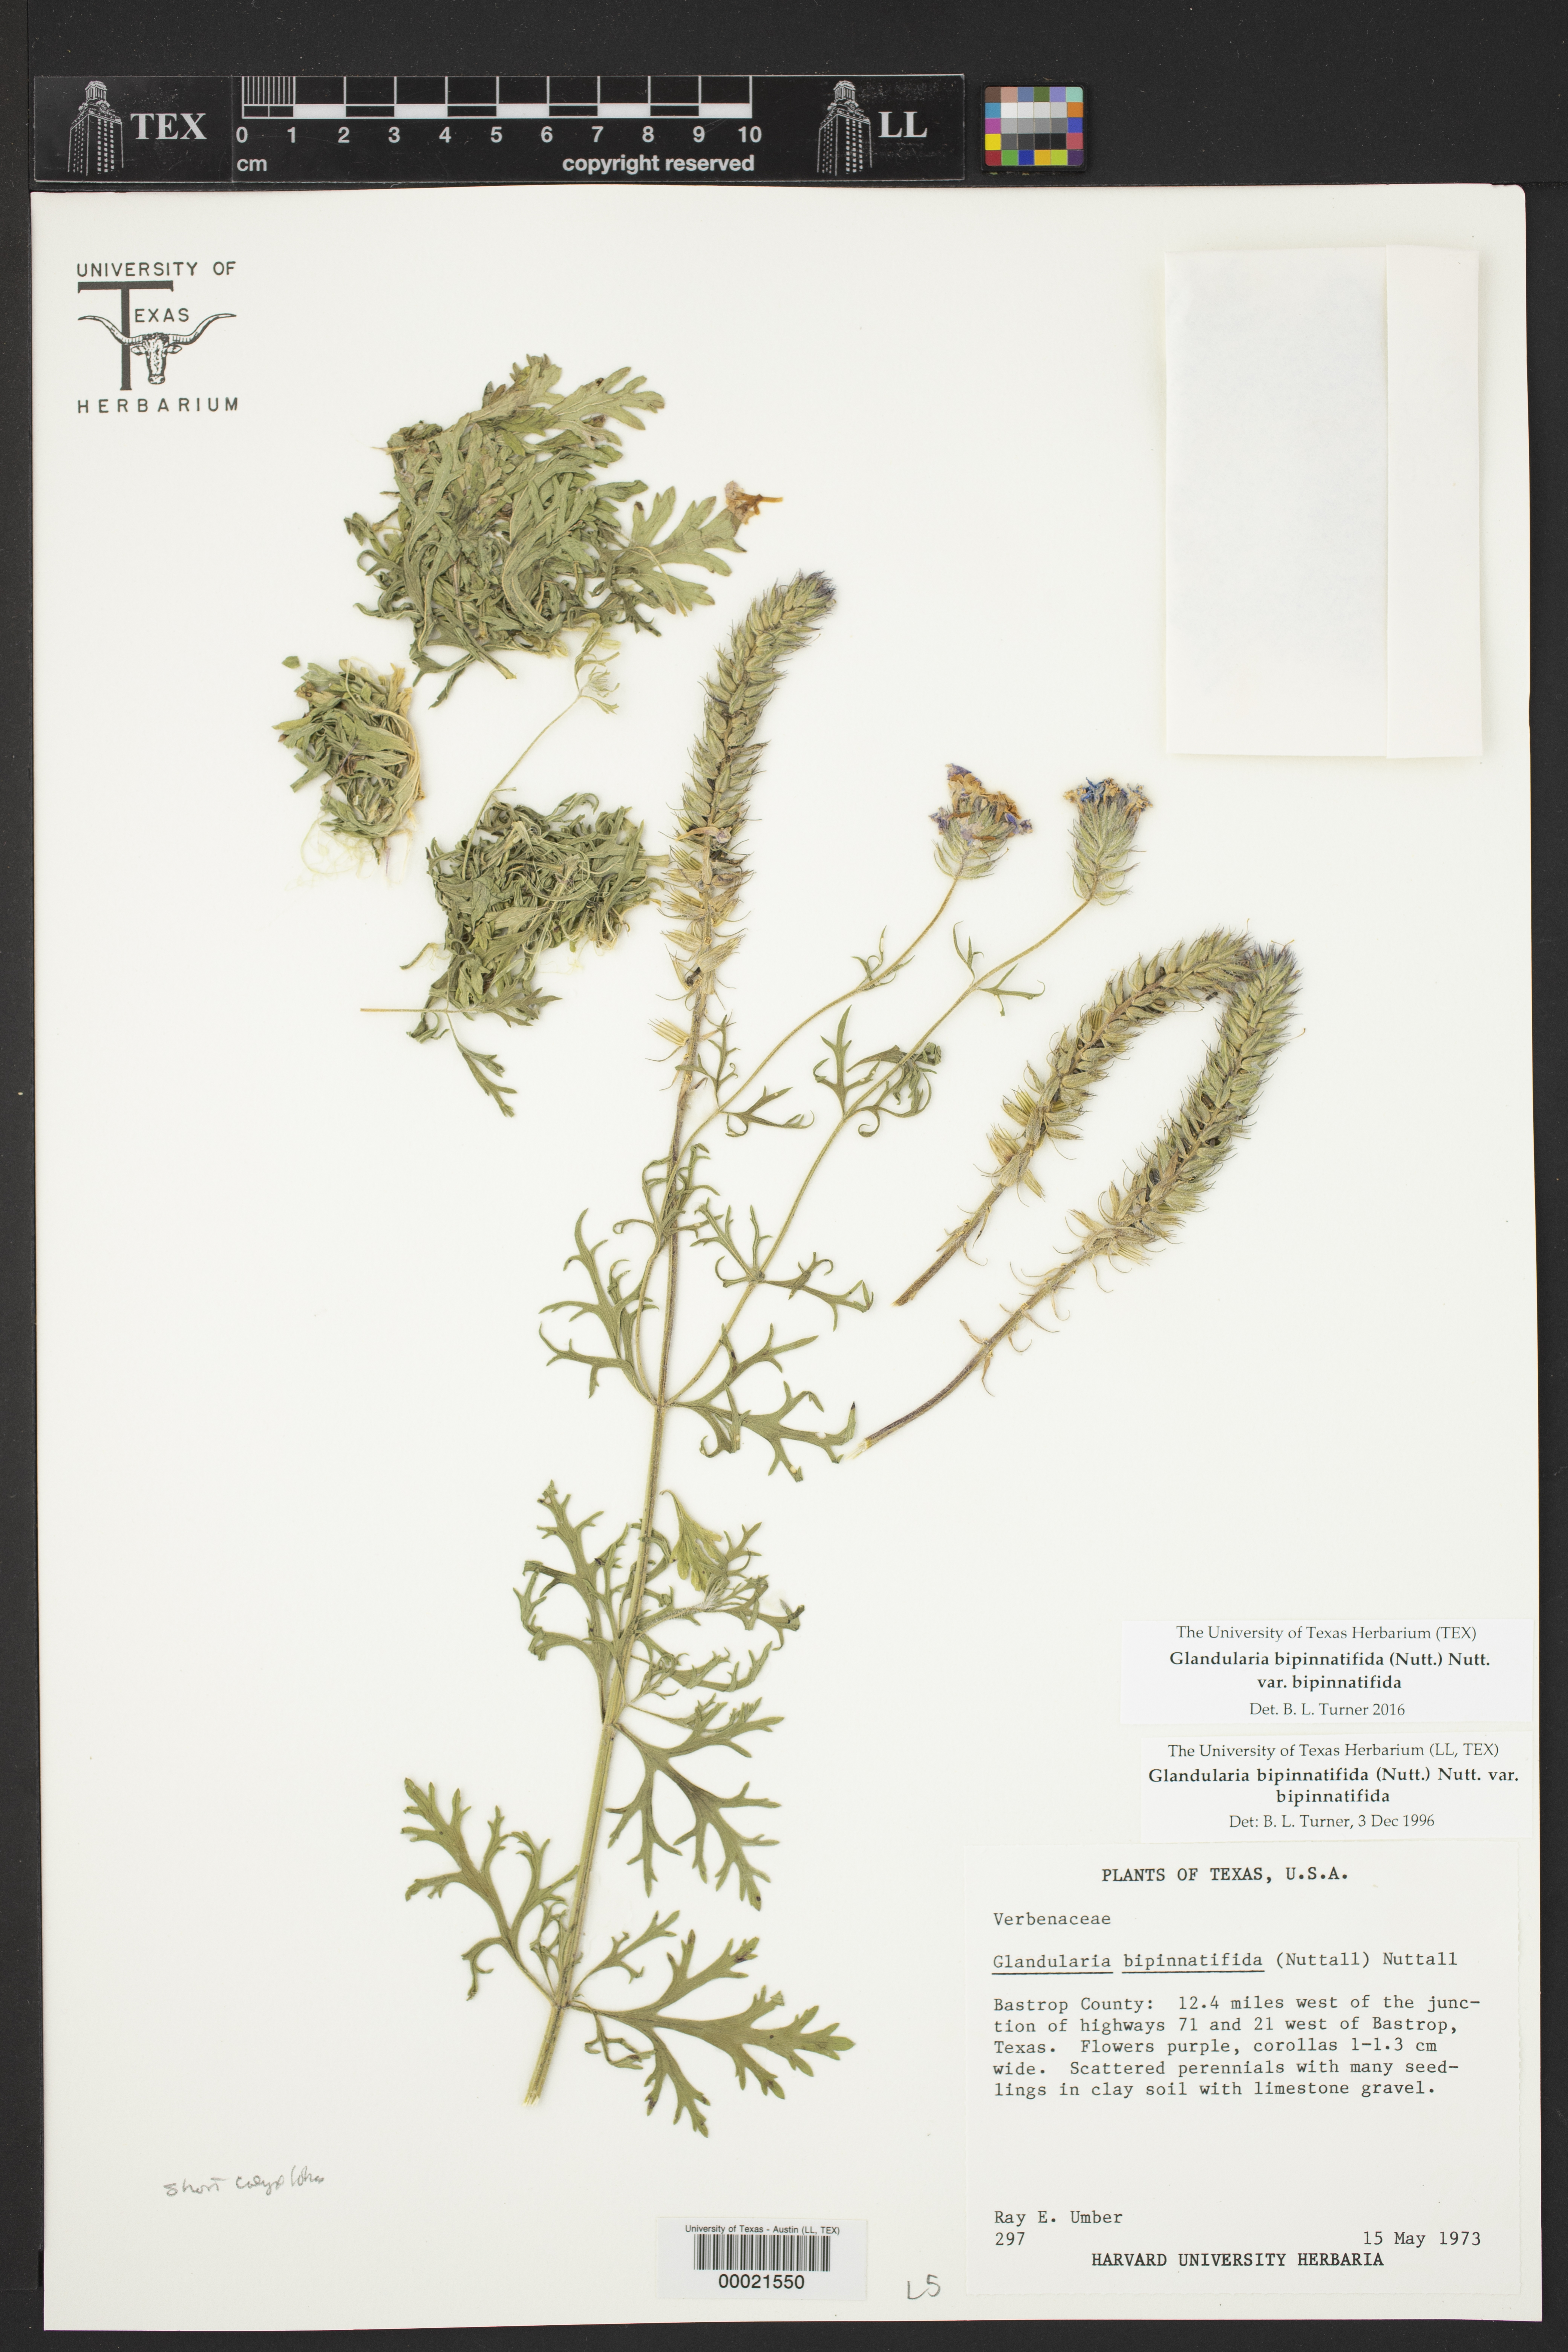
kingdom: Plantae
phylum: Tracheophyta
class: Magnoliopsida
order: Lamiales
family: Verbenaceae
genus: Verbena
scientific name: Verbena bipinnatifida
